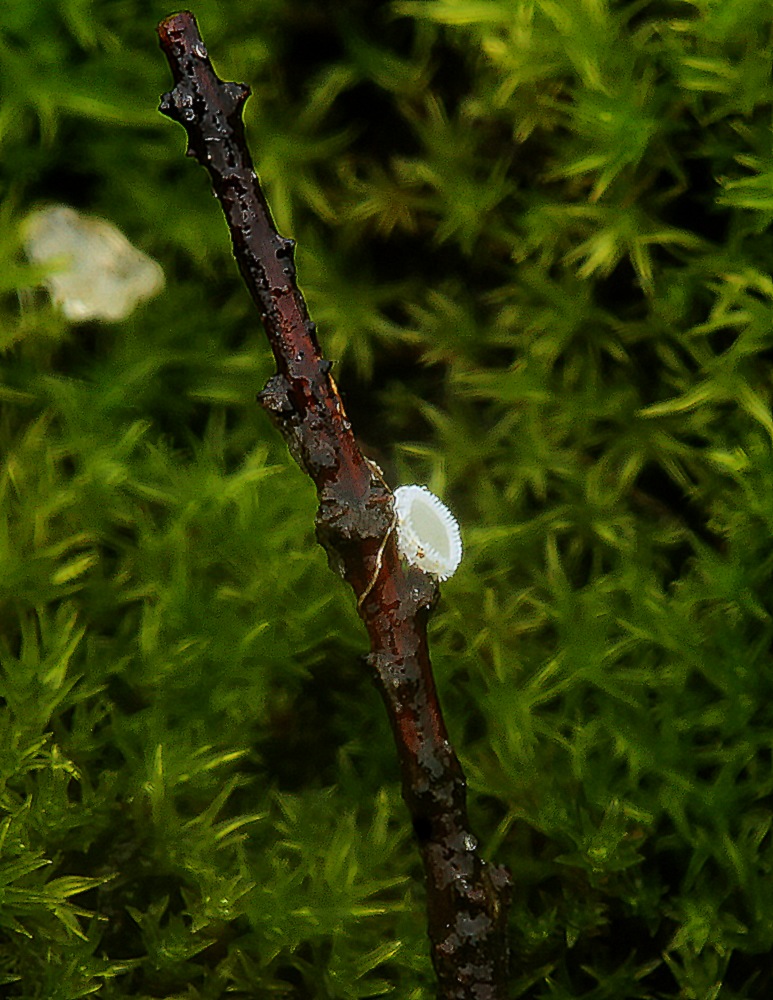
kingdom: Fungi
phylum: Ascomycota
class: Leotiomycetes
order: Helotiales
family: Lachnaceae
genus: Lachnum
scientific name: Lachnum virgineum
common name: jomfru-frynseskive
